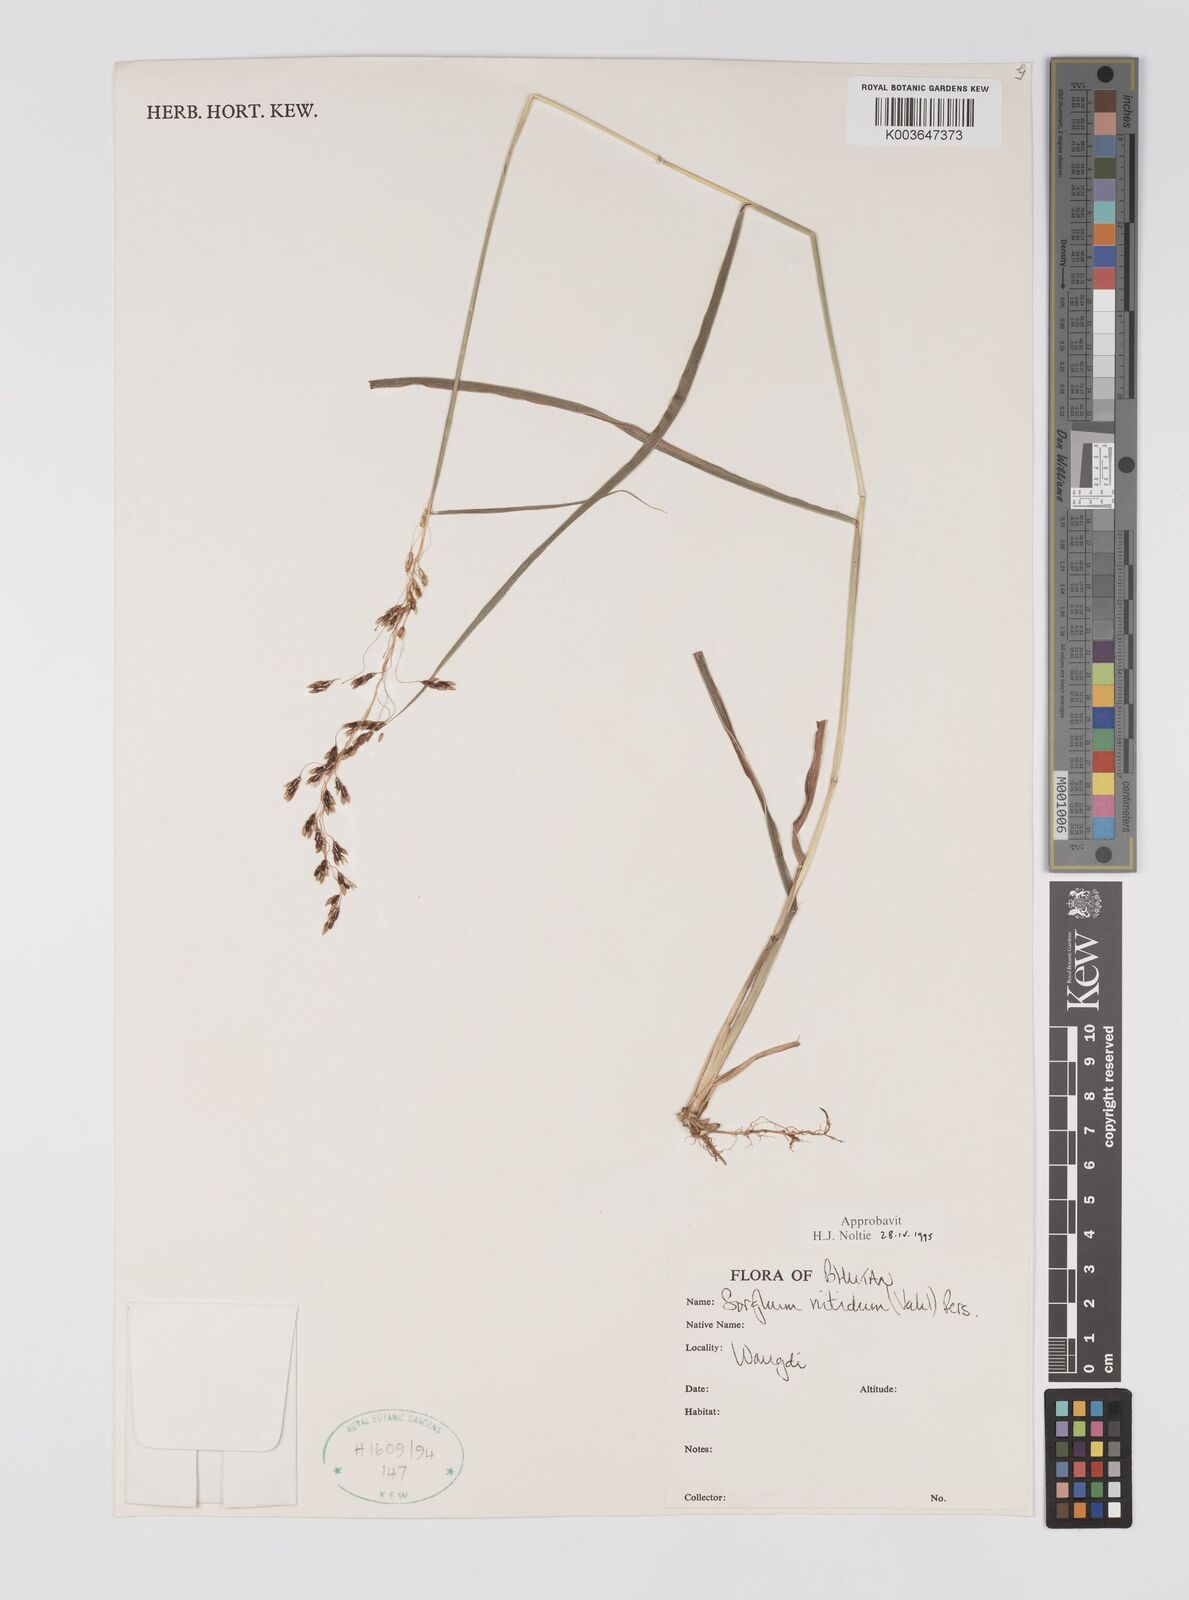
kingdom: Plantae
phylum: Tracheophyta
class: Liliopsida
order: Poales
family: Poaceae
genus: Sorghum
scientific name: Sorghum nitidum
